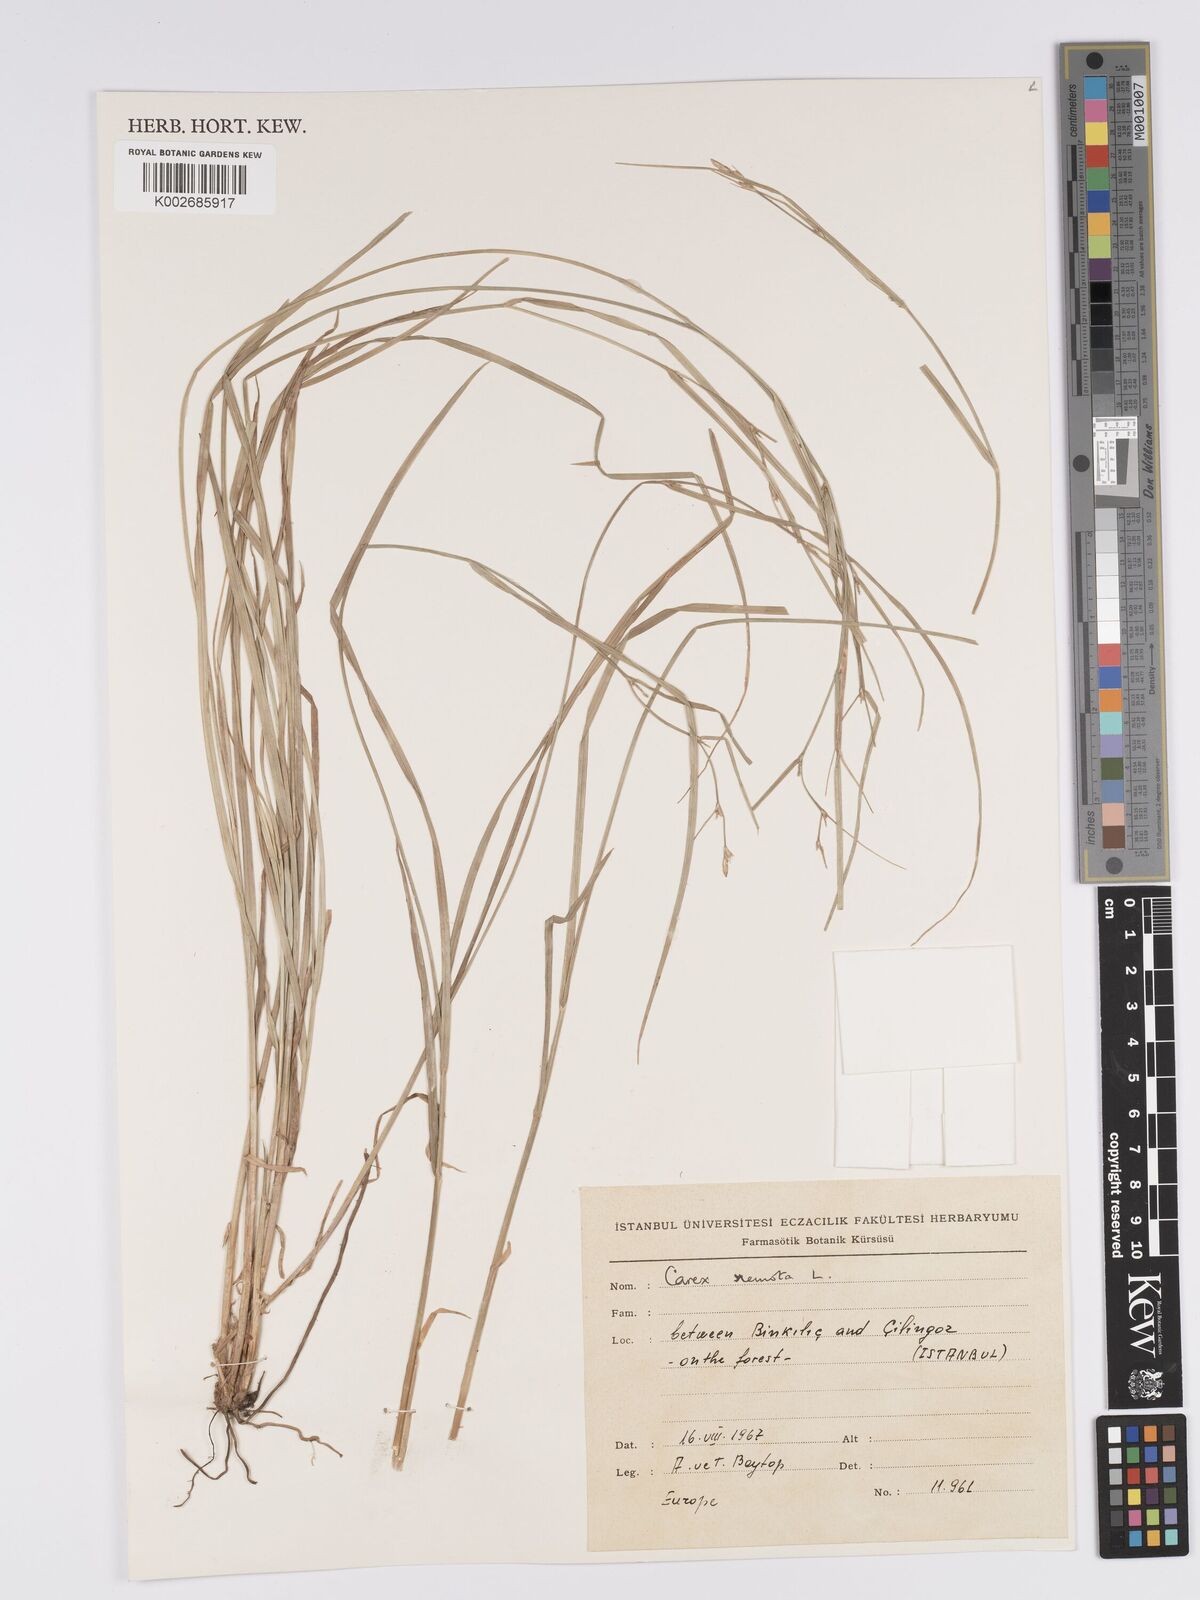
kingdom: Plantae
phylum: Tracheophyta
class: Liliopsida
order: Poales
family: Cyperaceae
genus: Carex
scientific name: Carex remota
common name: Remote sedge
